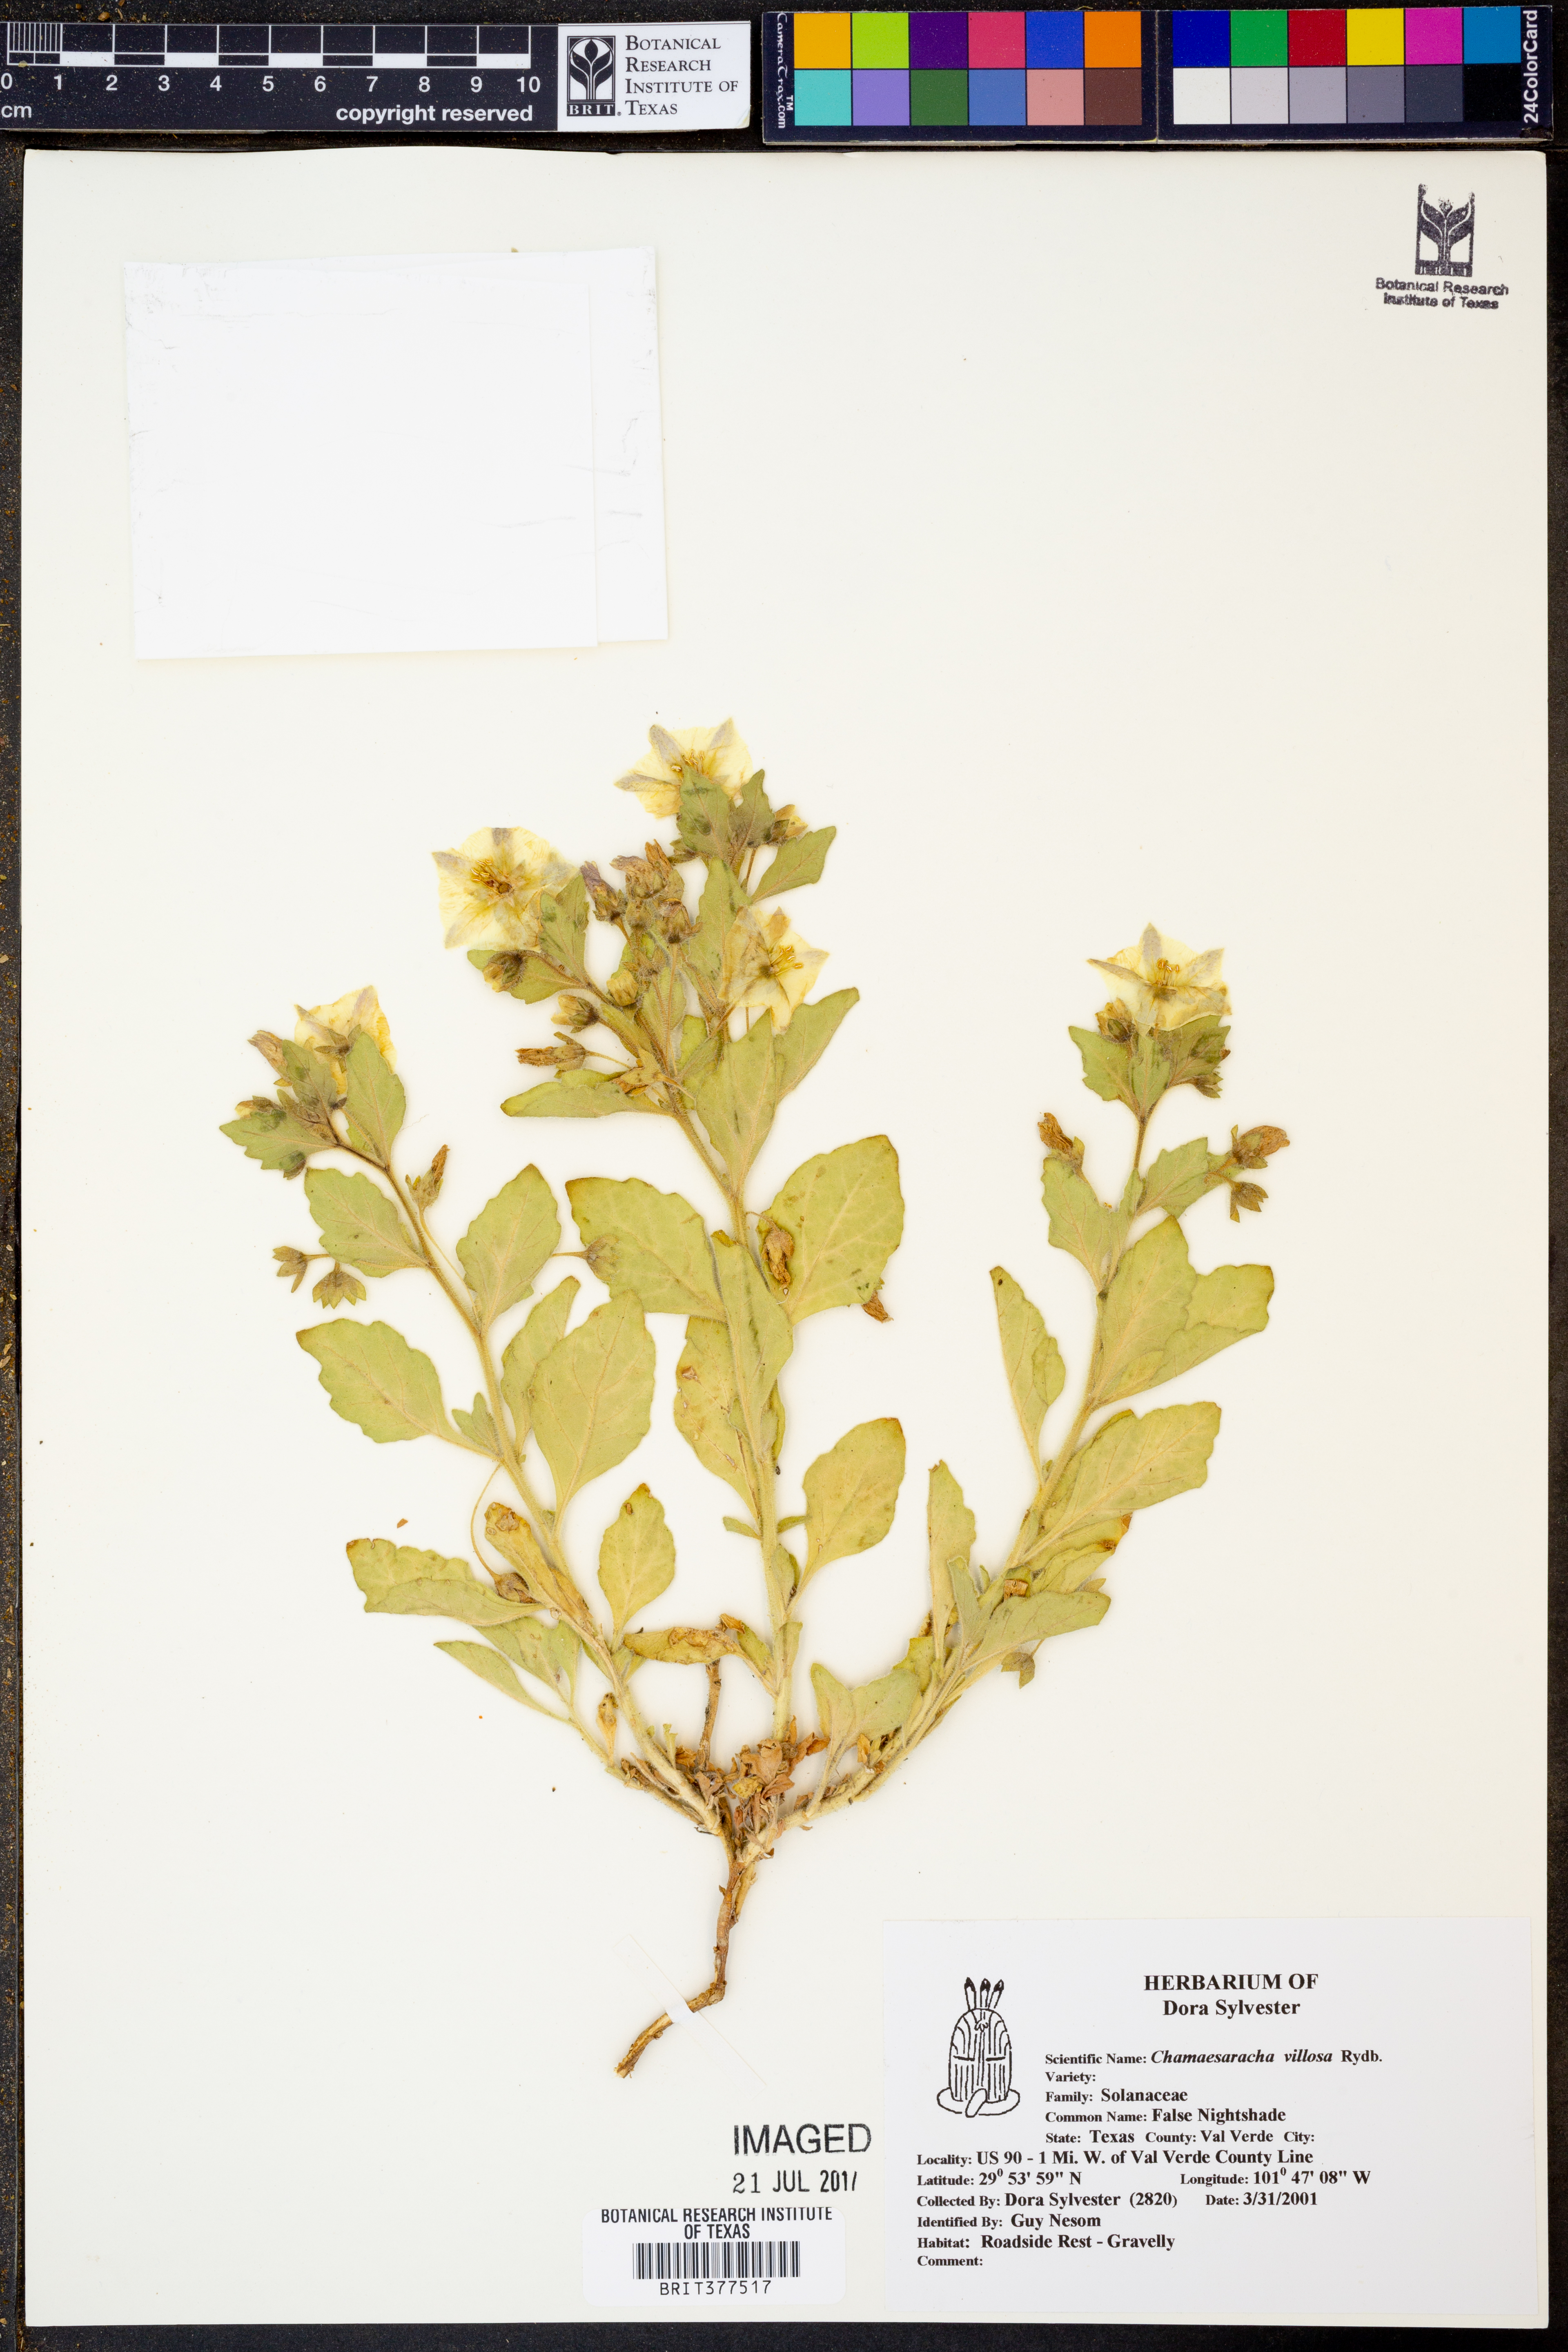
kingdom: Plantae
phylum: Tracheophyta
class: Magnoliopsida
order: Solanales
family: Solanaceae
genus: Chamaesaracha
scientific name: Chamaesaracha villosa
